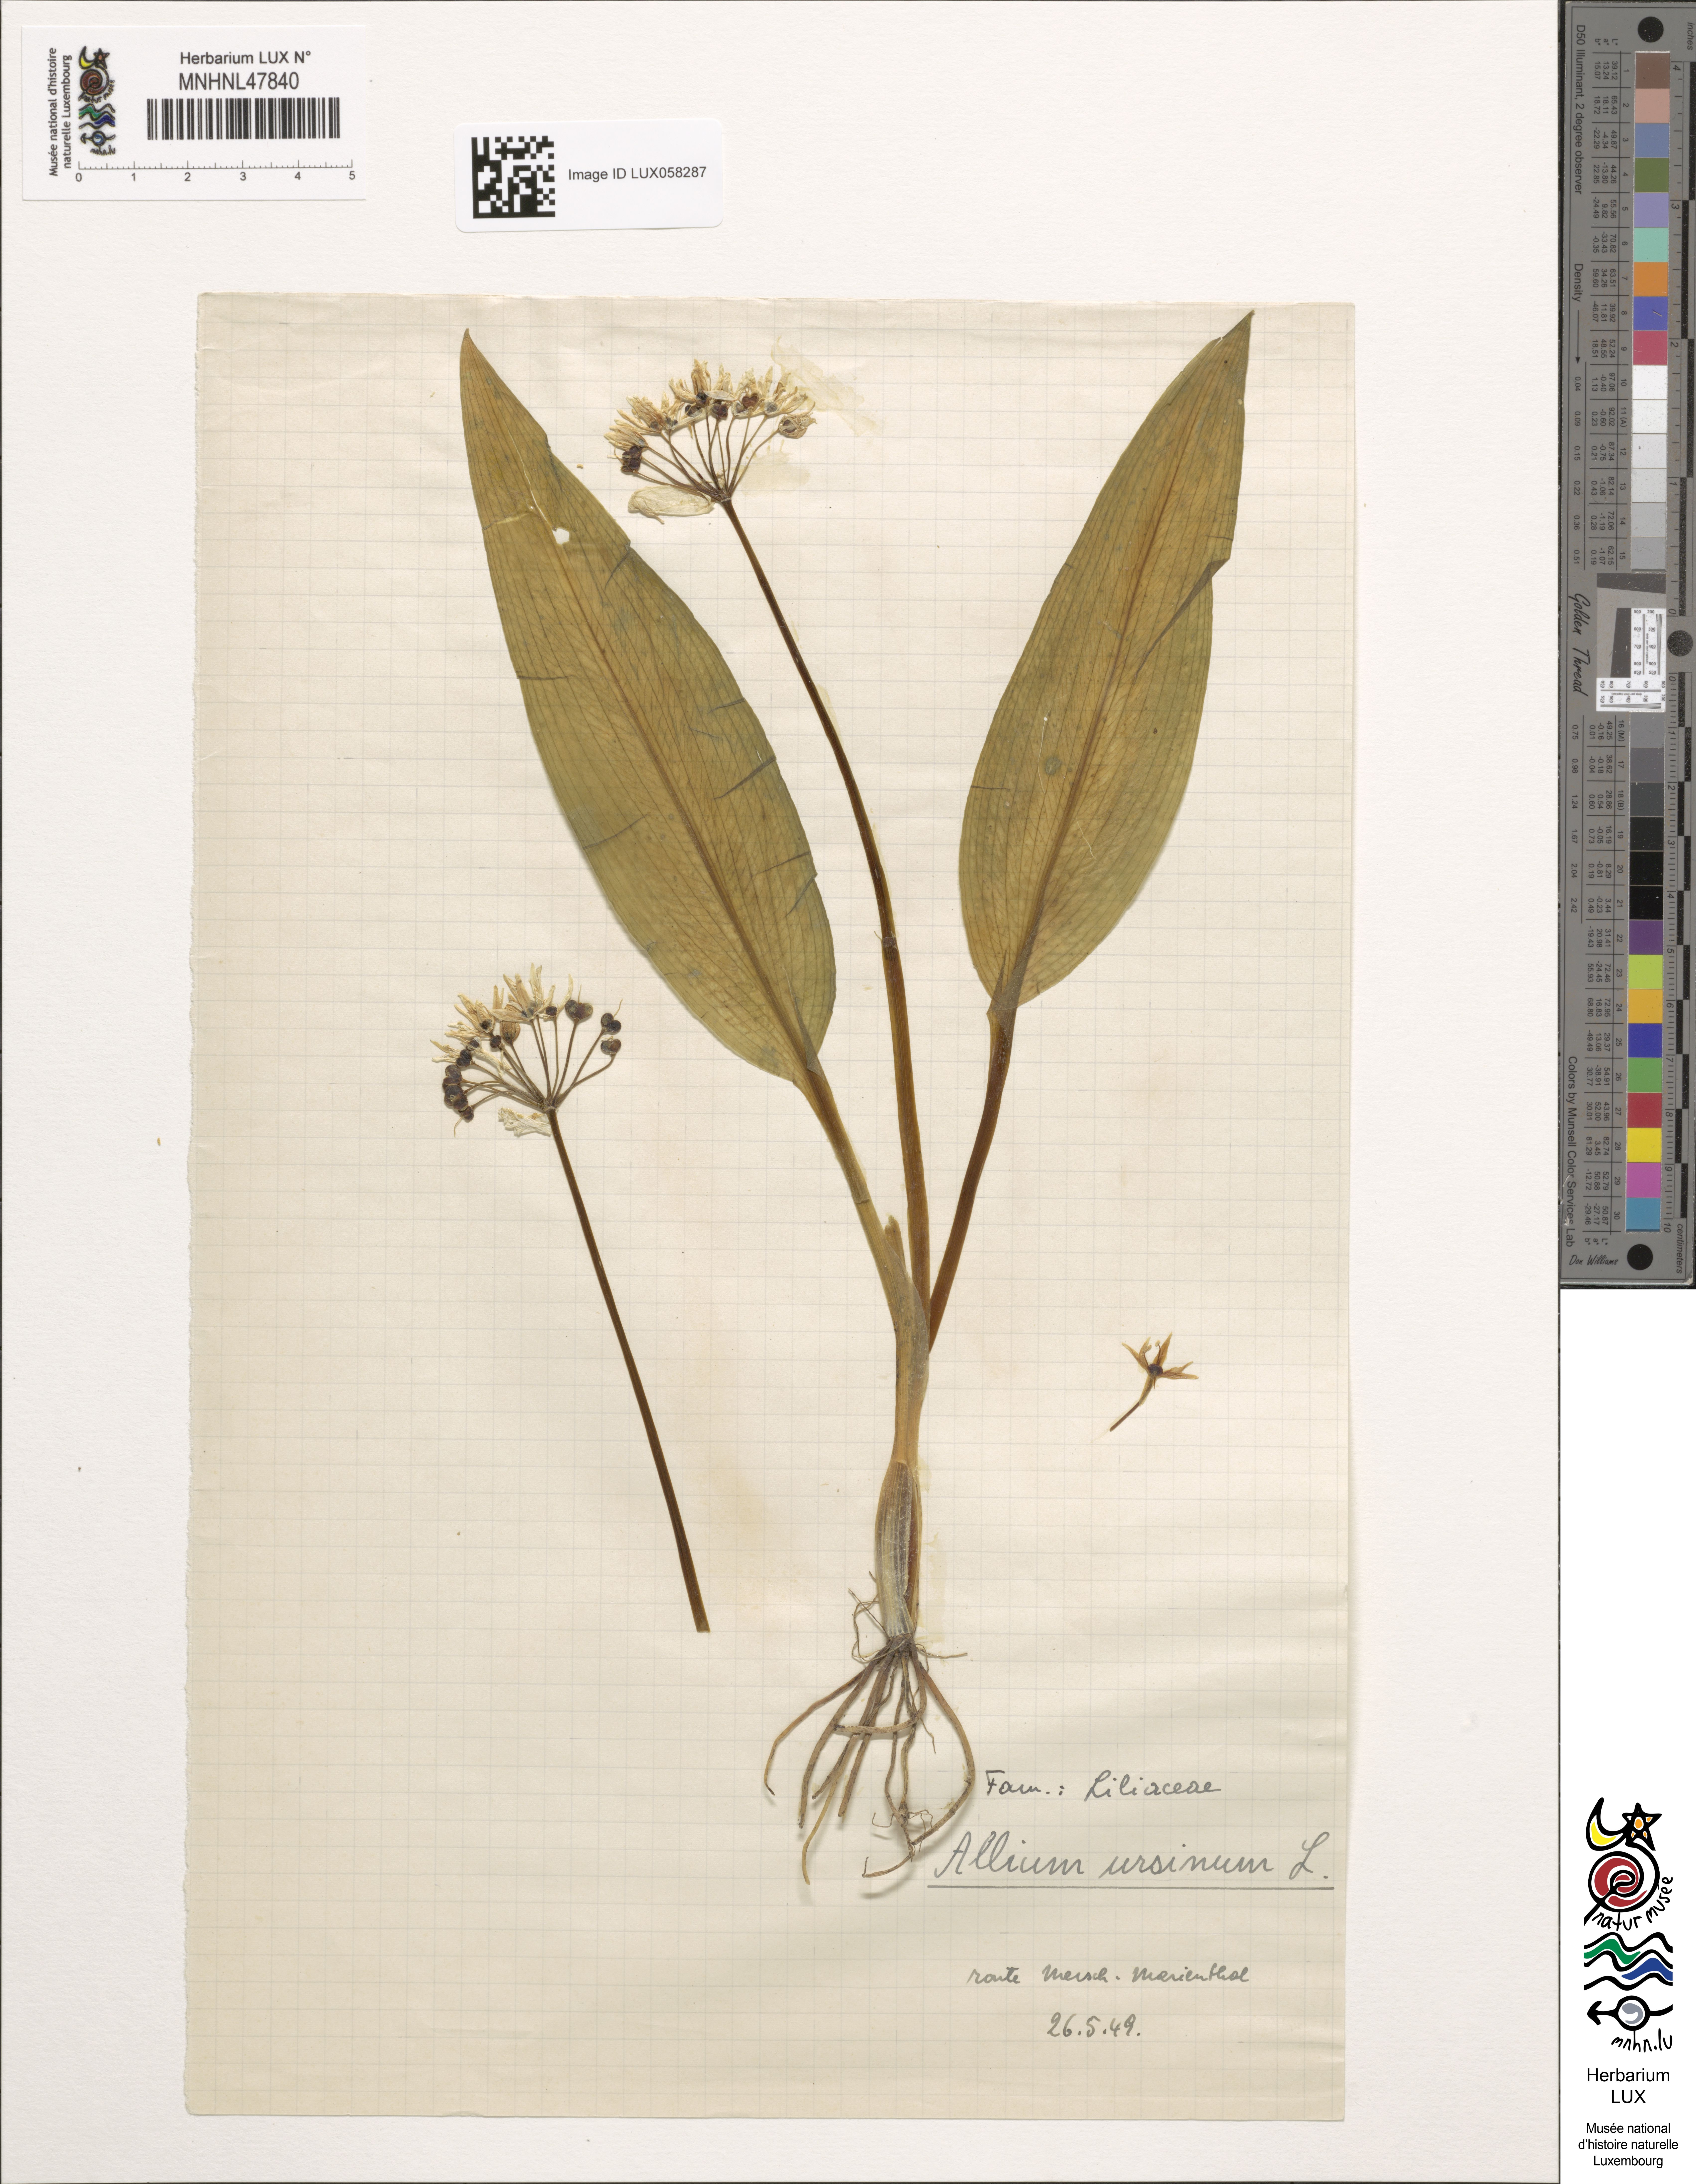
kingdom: Plantae
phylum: Tracheophyta
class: Liliopsida
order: Asparagales
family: Amaryllidaceae
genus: Allium
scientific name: Allium ursinum
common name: Ramsons
